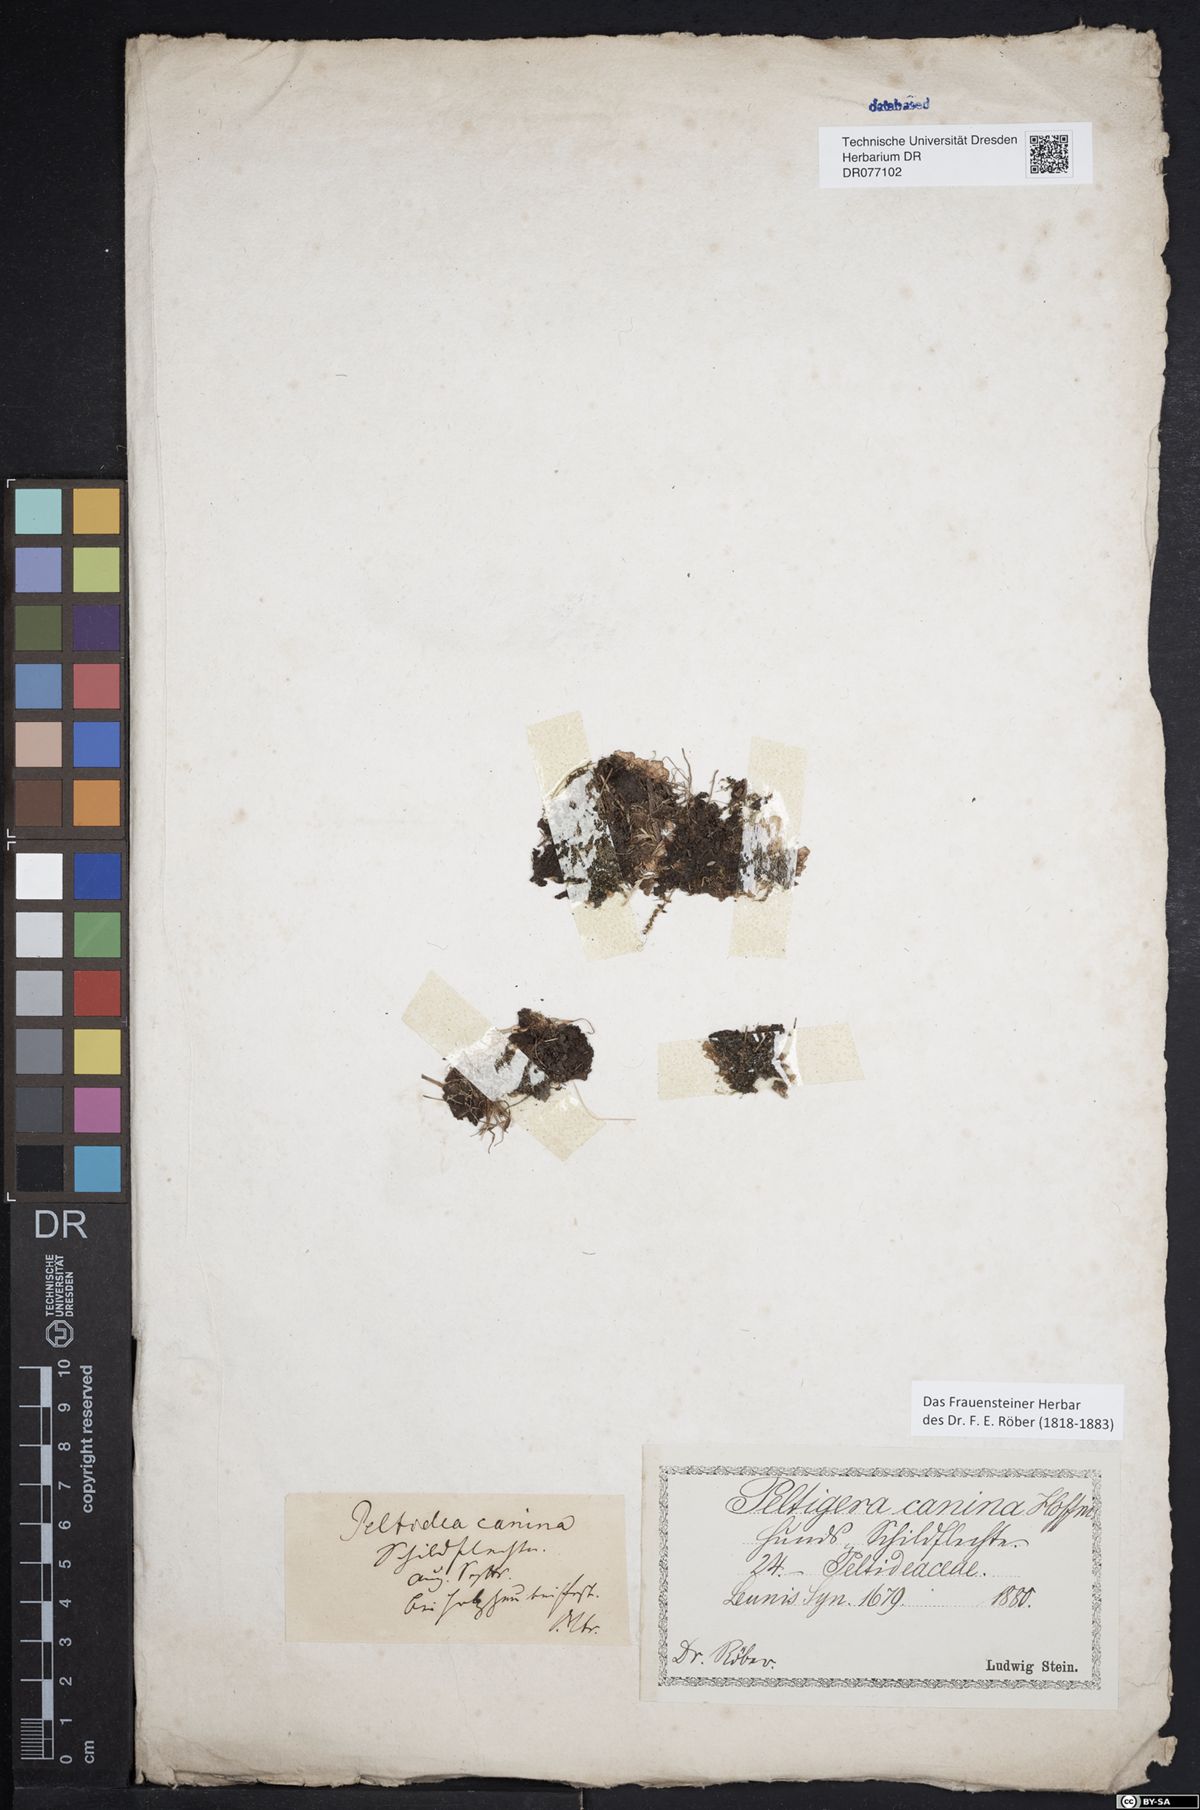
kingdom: Fungi
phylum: Ascomycota
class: Lecanoromycetes
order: Peltigerales
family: Peltigeraceae
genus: Peltigera
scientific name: Peltigera canina
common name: Dog pelt lichen
